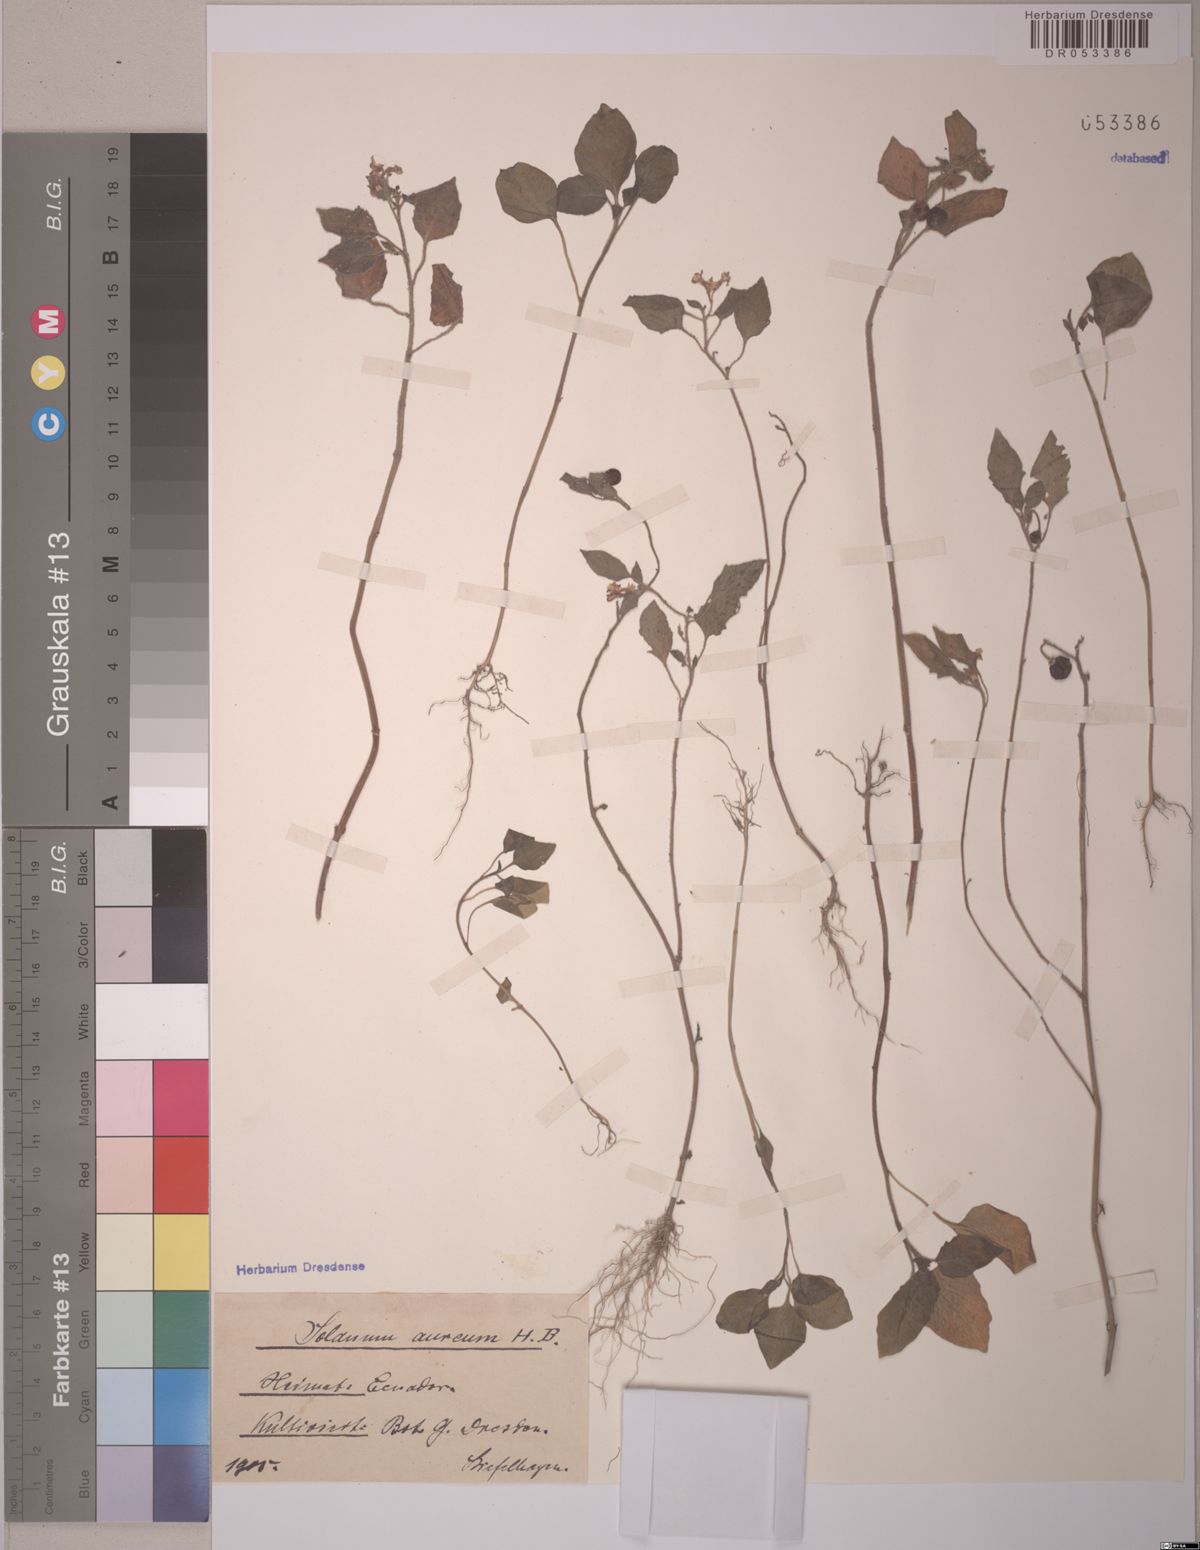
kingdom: Plantae
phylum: Tracheophyta
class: Magnoliopsida
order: Solanales
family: Solanaceae
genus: Solanum
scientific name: Solanum aureum
